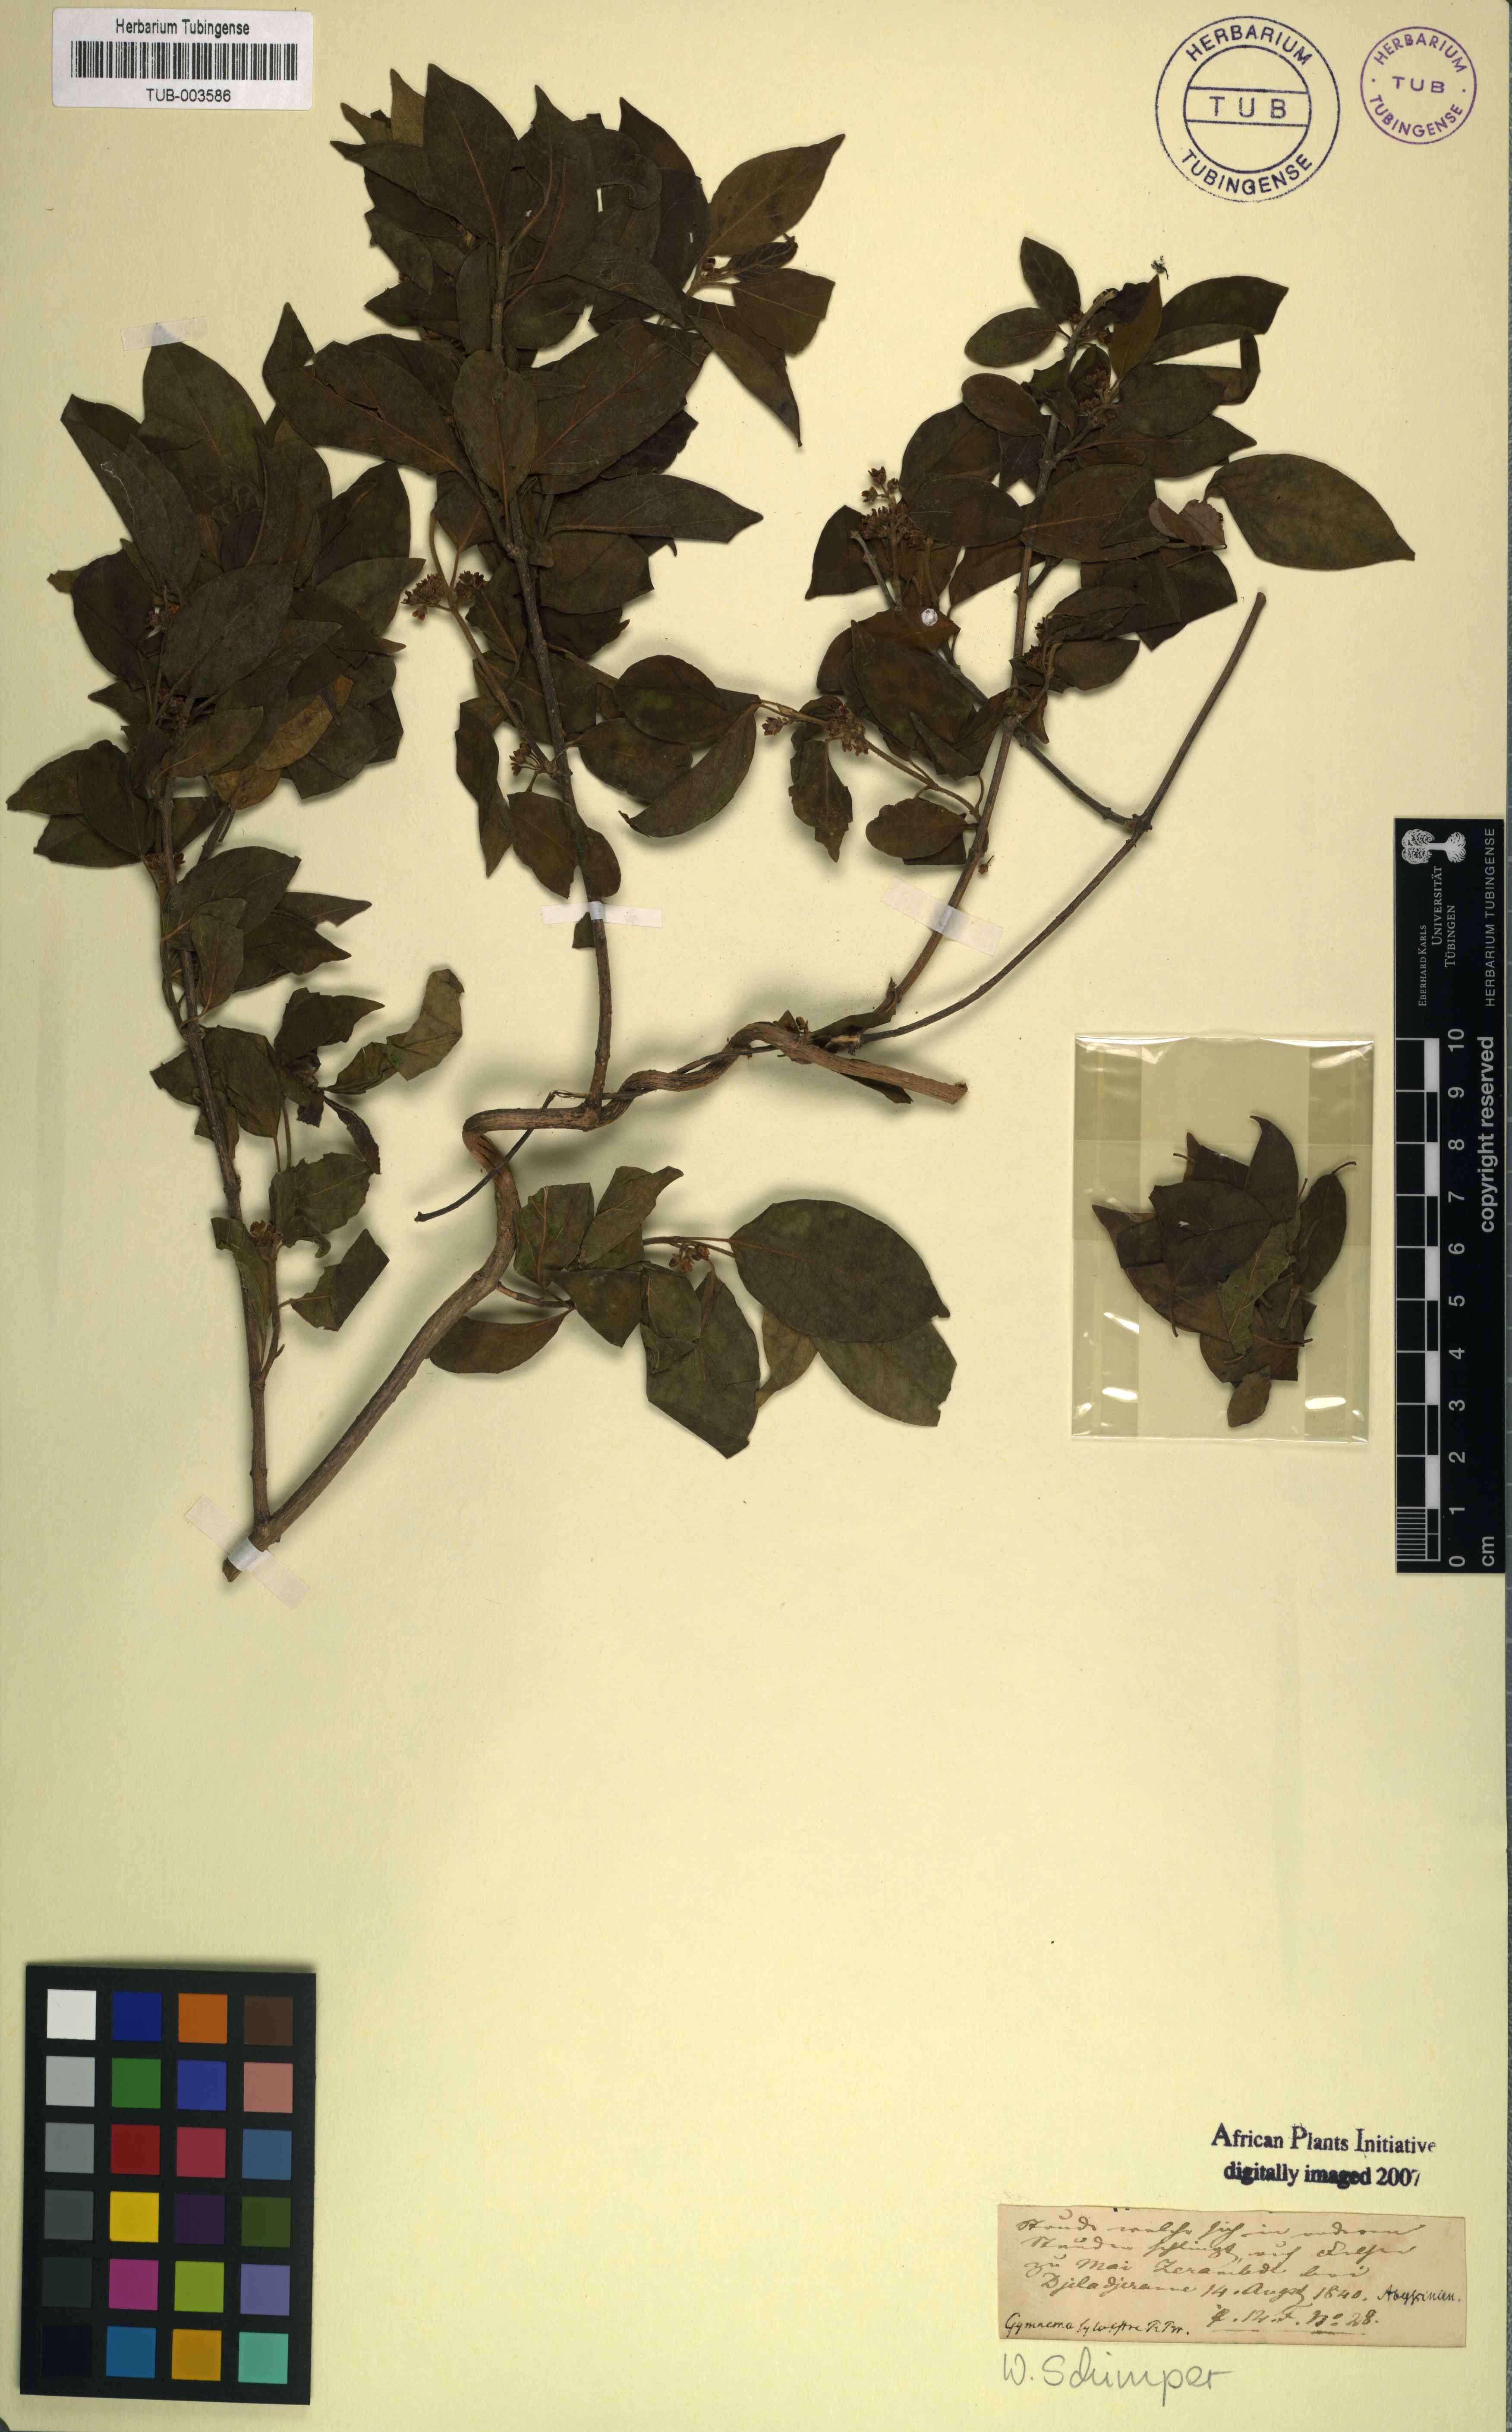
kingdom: Plantae
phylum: Tracheophyta
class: Magnoliopsida
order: Gentianales
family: Apocynaceae
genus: Gymnema
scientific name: Gymnema sylvestre
